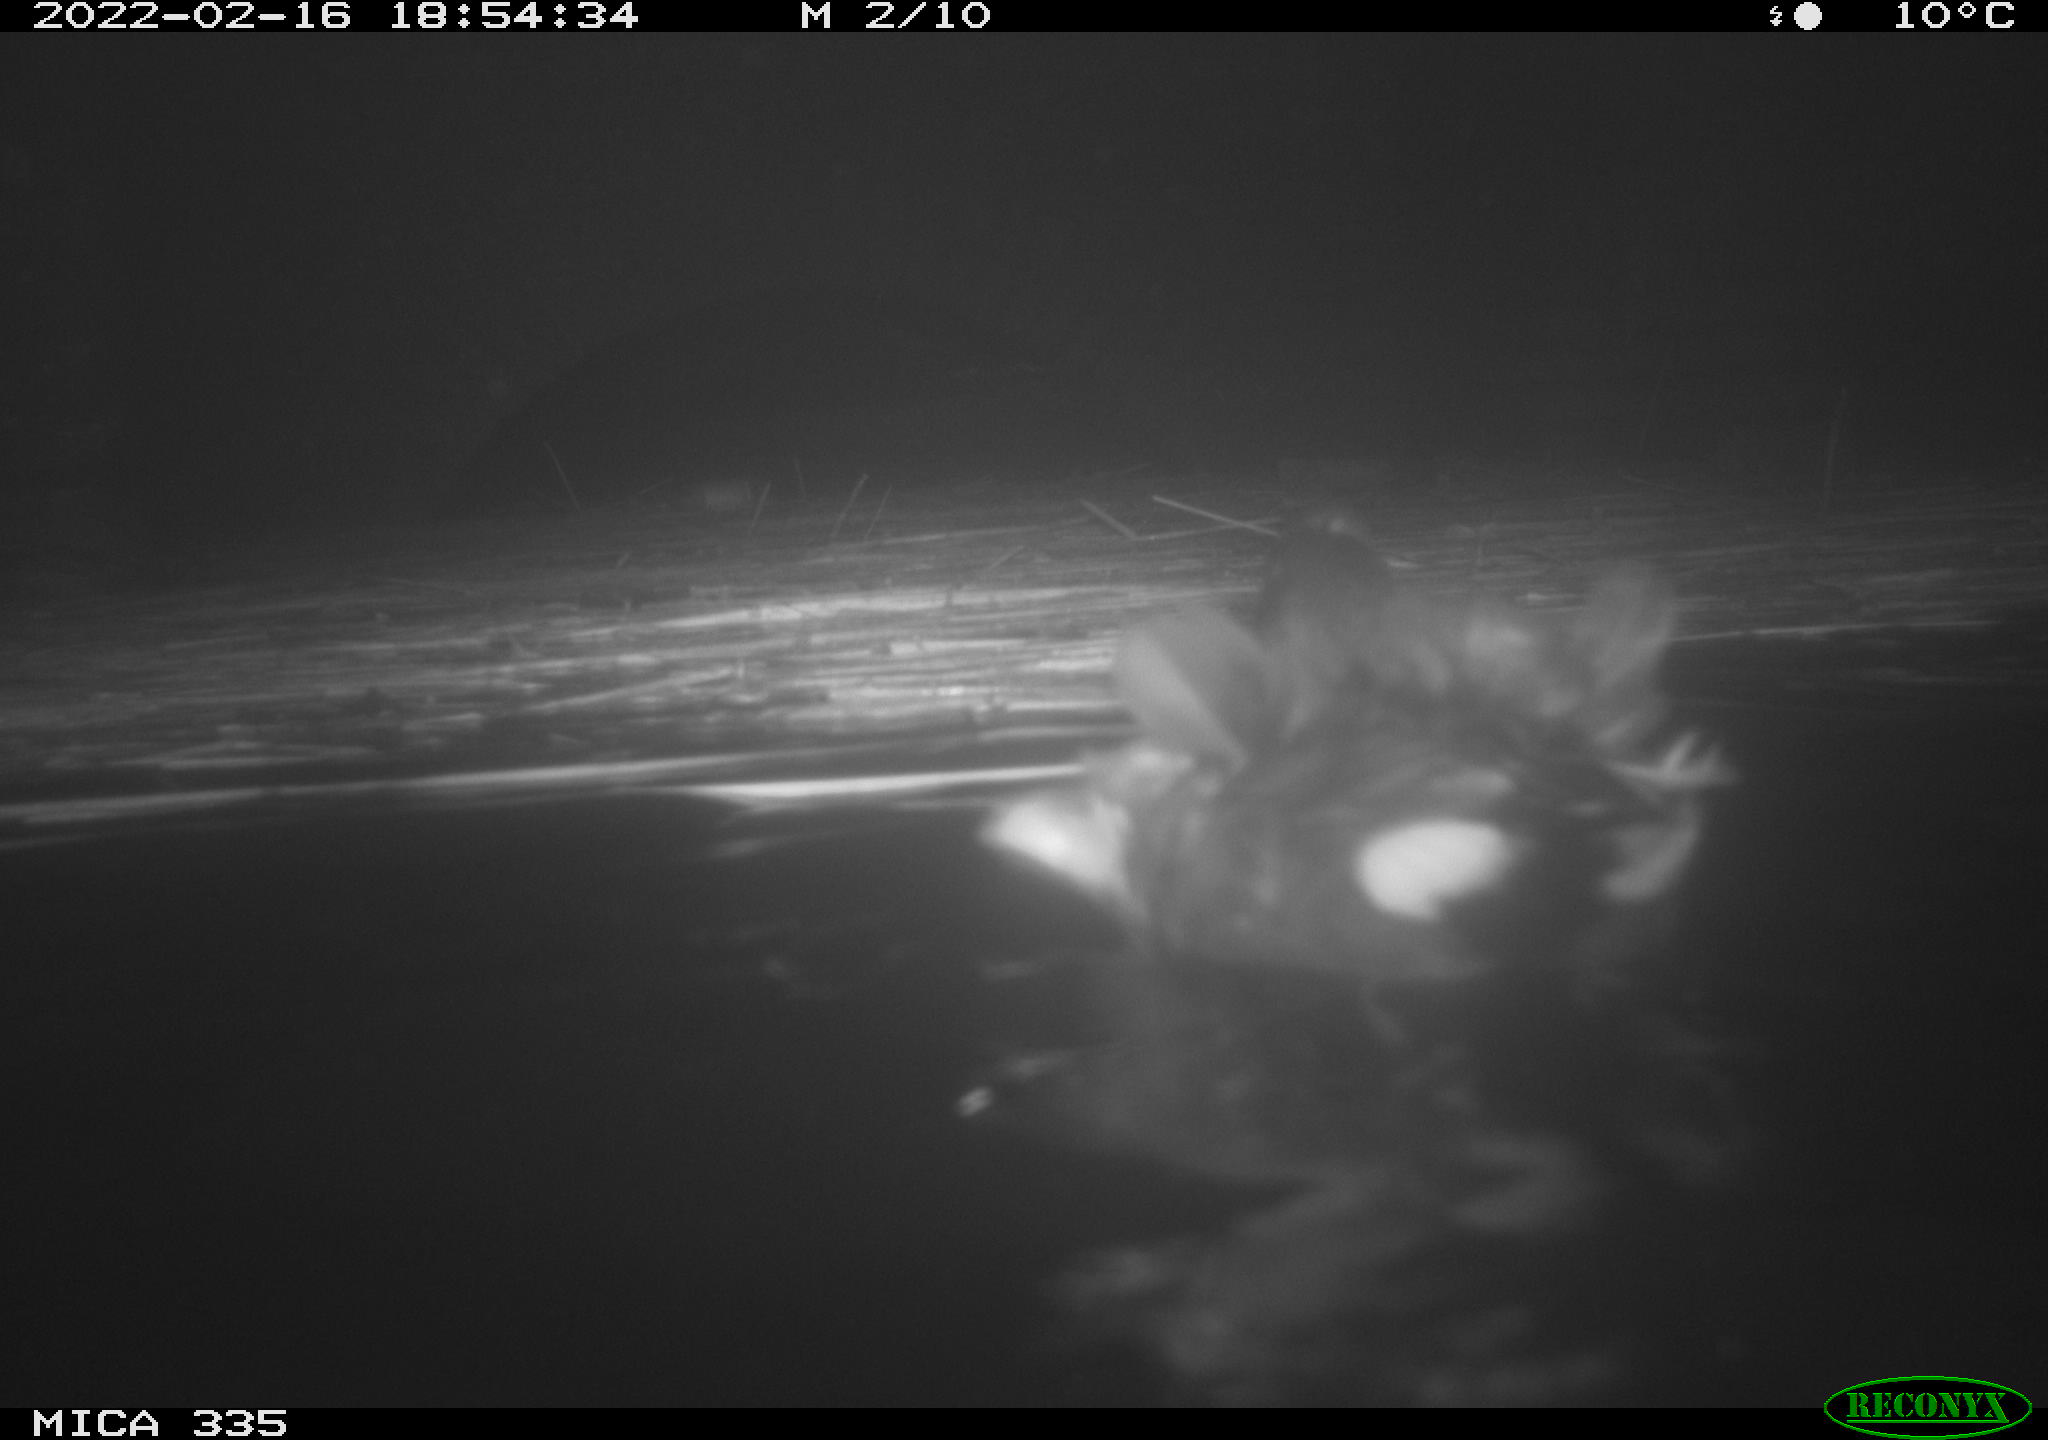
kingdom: Animalia
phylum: Chordata
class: Aves
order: Gruiformes
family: Rallidae
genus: Gallinula
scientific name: Gallinula chloropus
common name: Common moorhen
